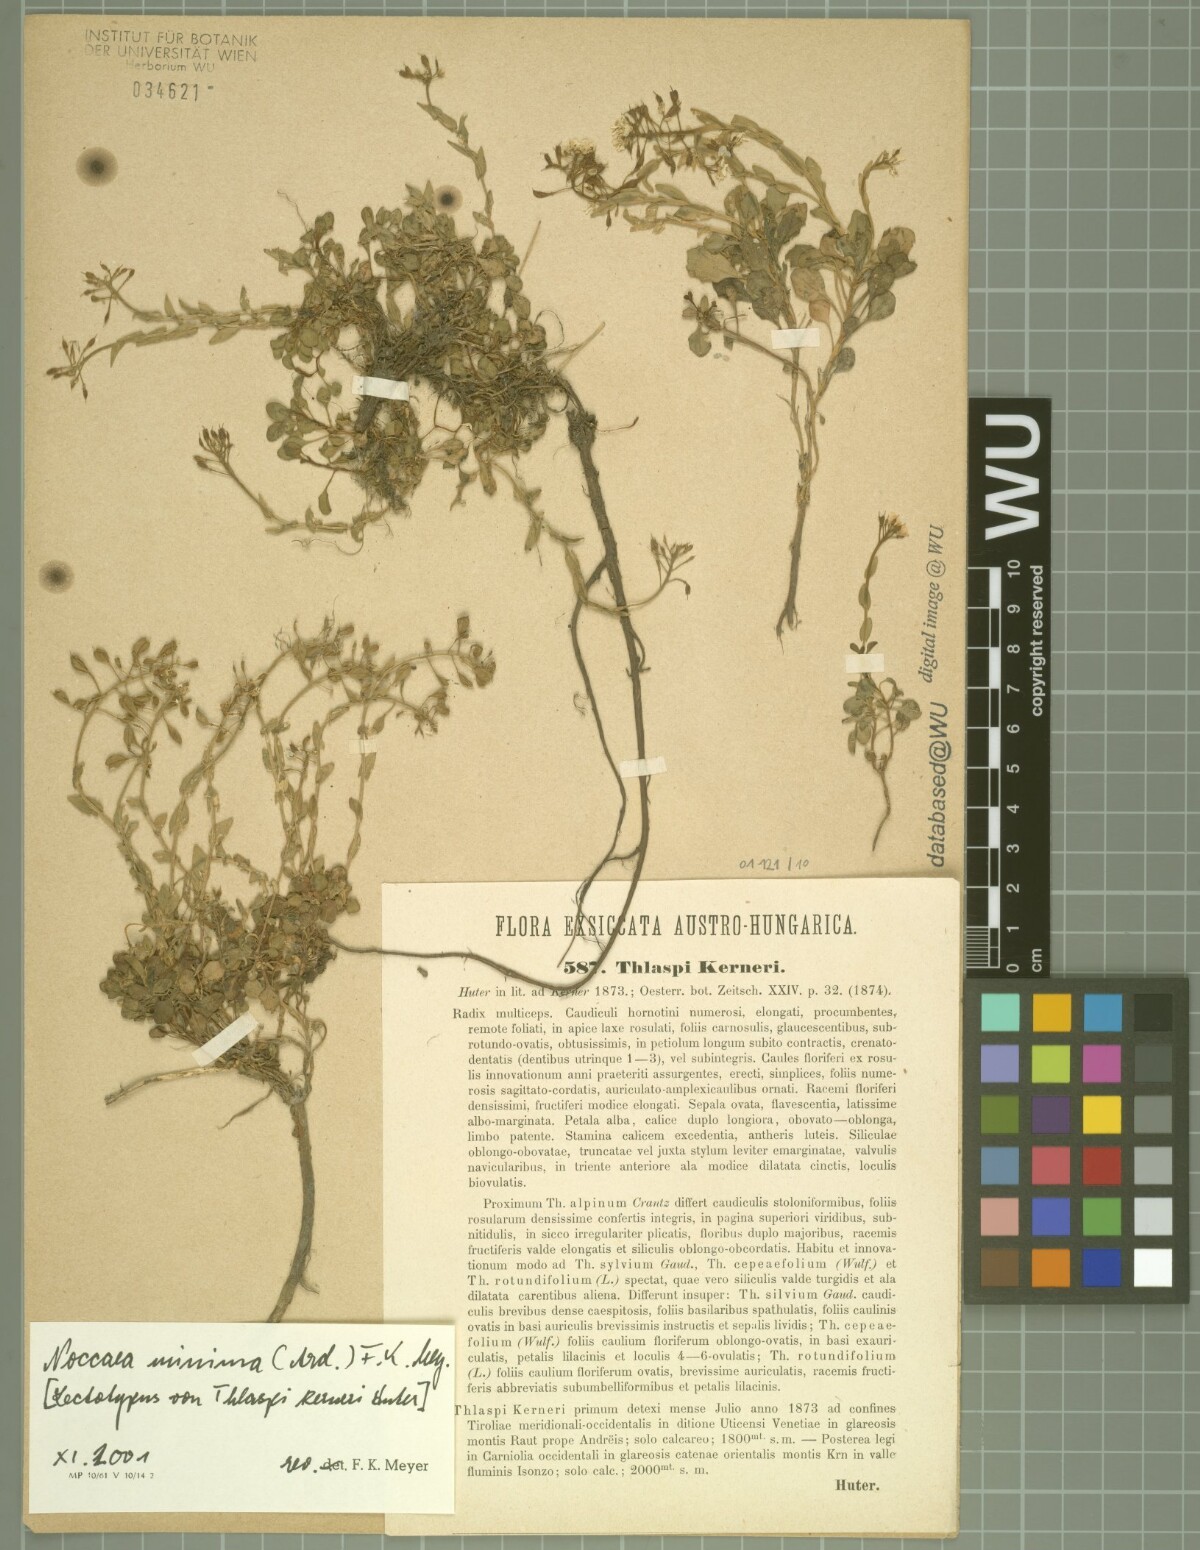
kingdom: Plantae
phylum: Tracheophyta
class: Magnoliopsida
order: Brassicales
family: Brassicaceae
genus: Noccaea
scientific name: Noccaea minima
